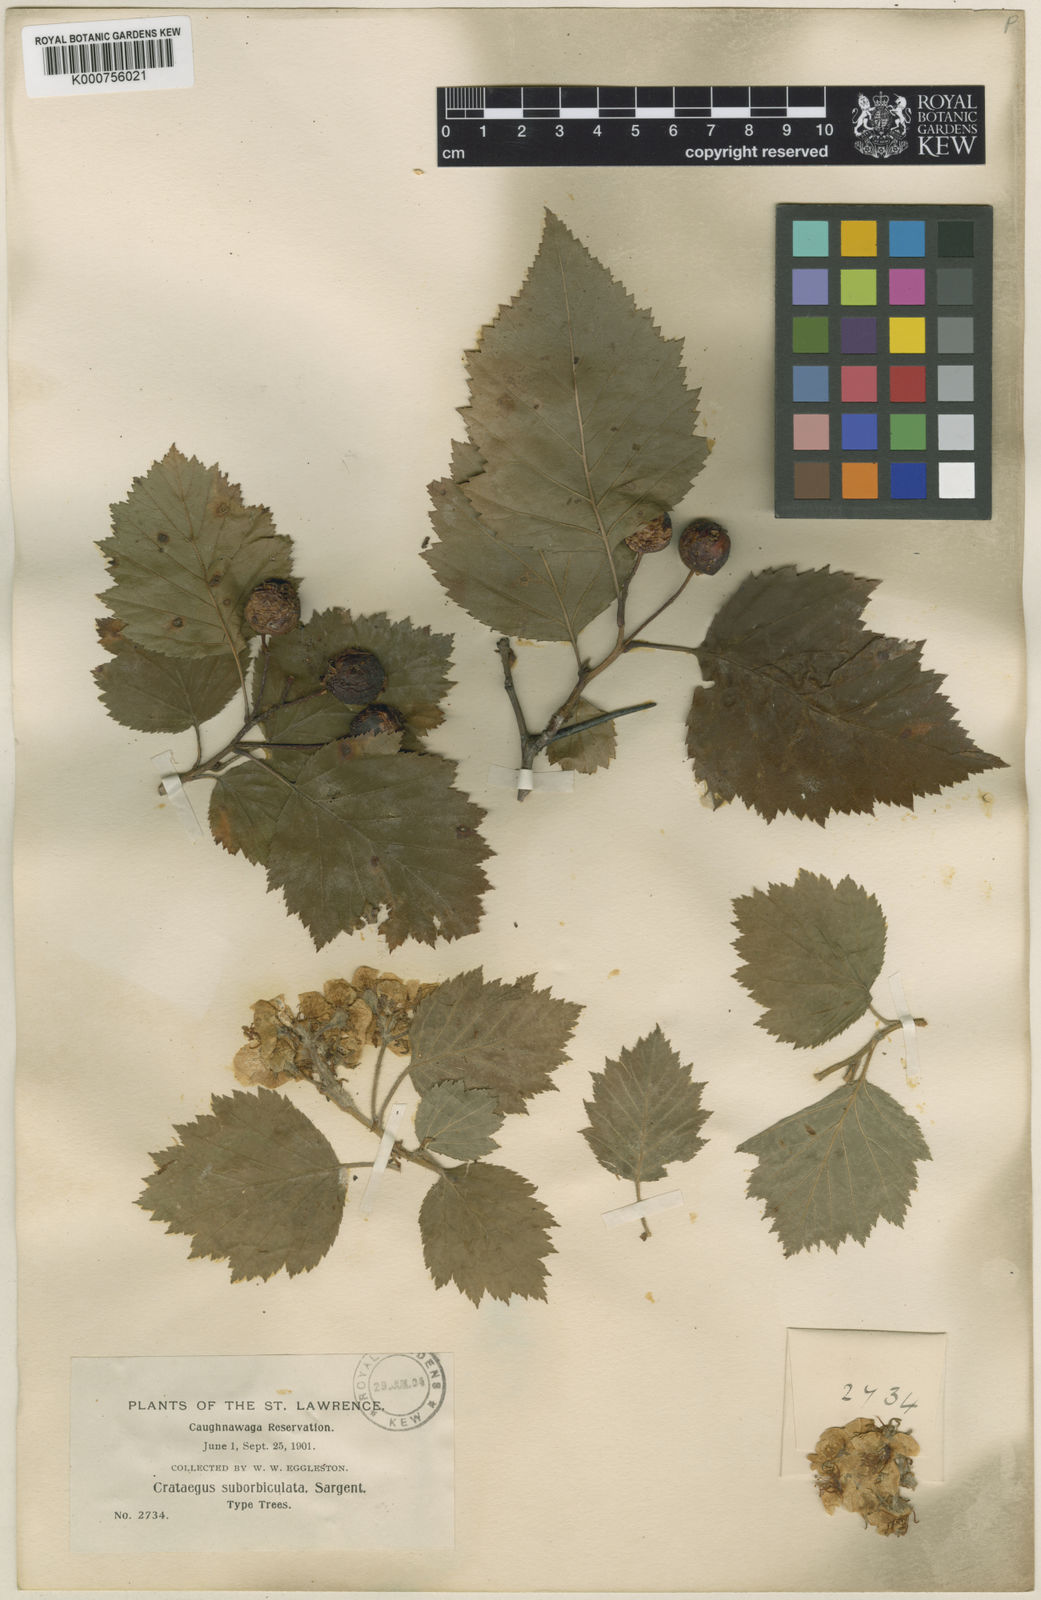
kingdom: Plantae
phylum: Tracheophyta
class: Magnoliopsida
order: Rosales
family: Rosaceae
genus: Crataegus
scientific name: Crataegus suborbiculata
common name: Caughnawaga hawthorn
